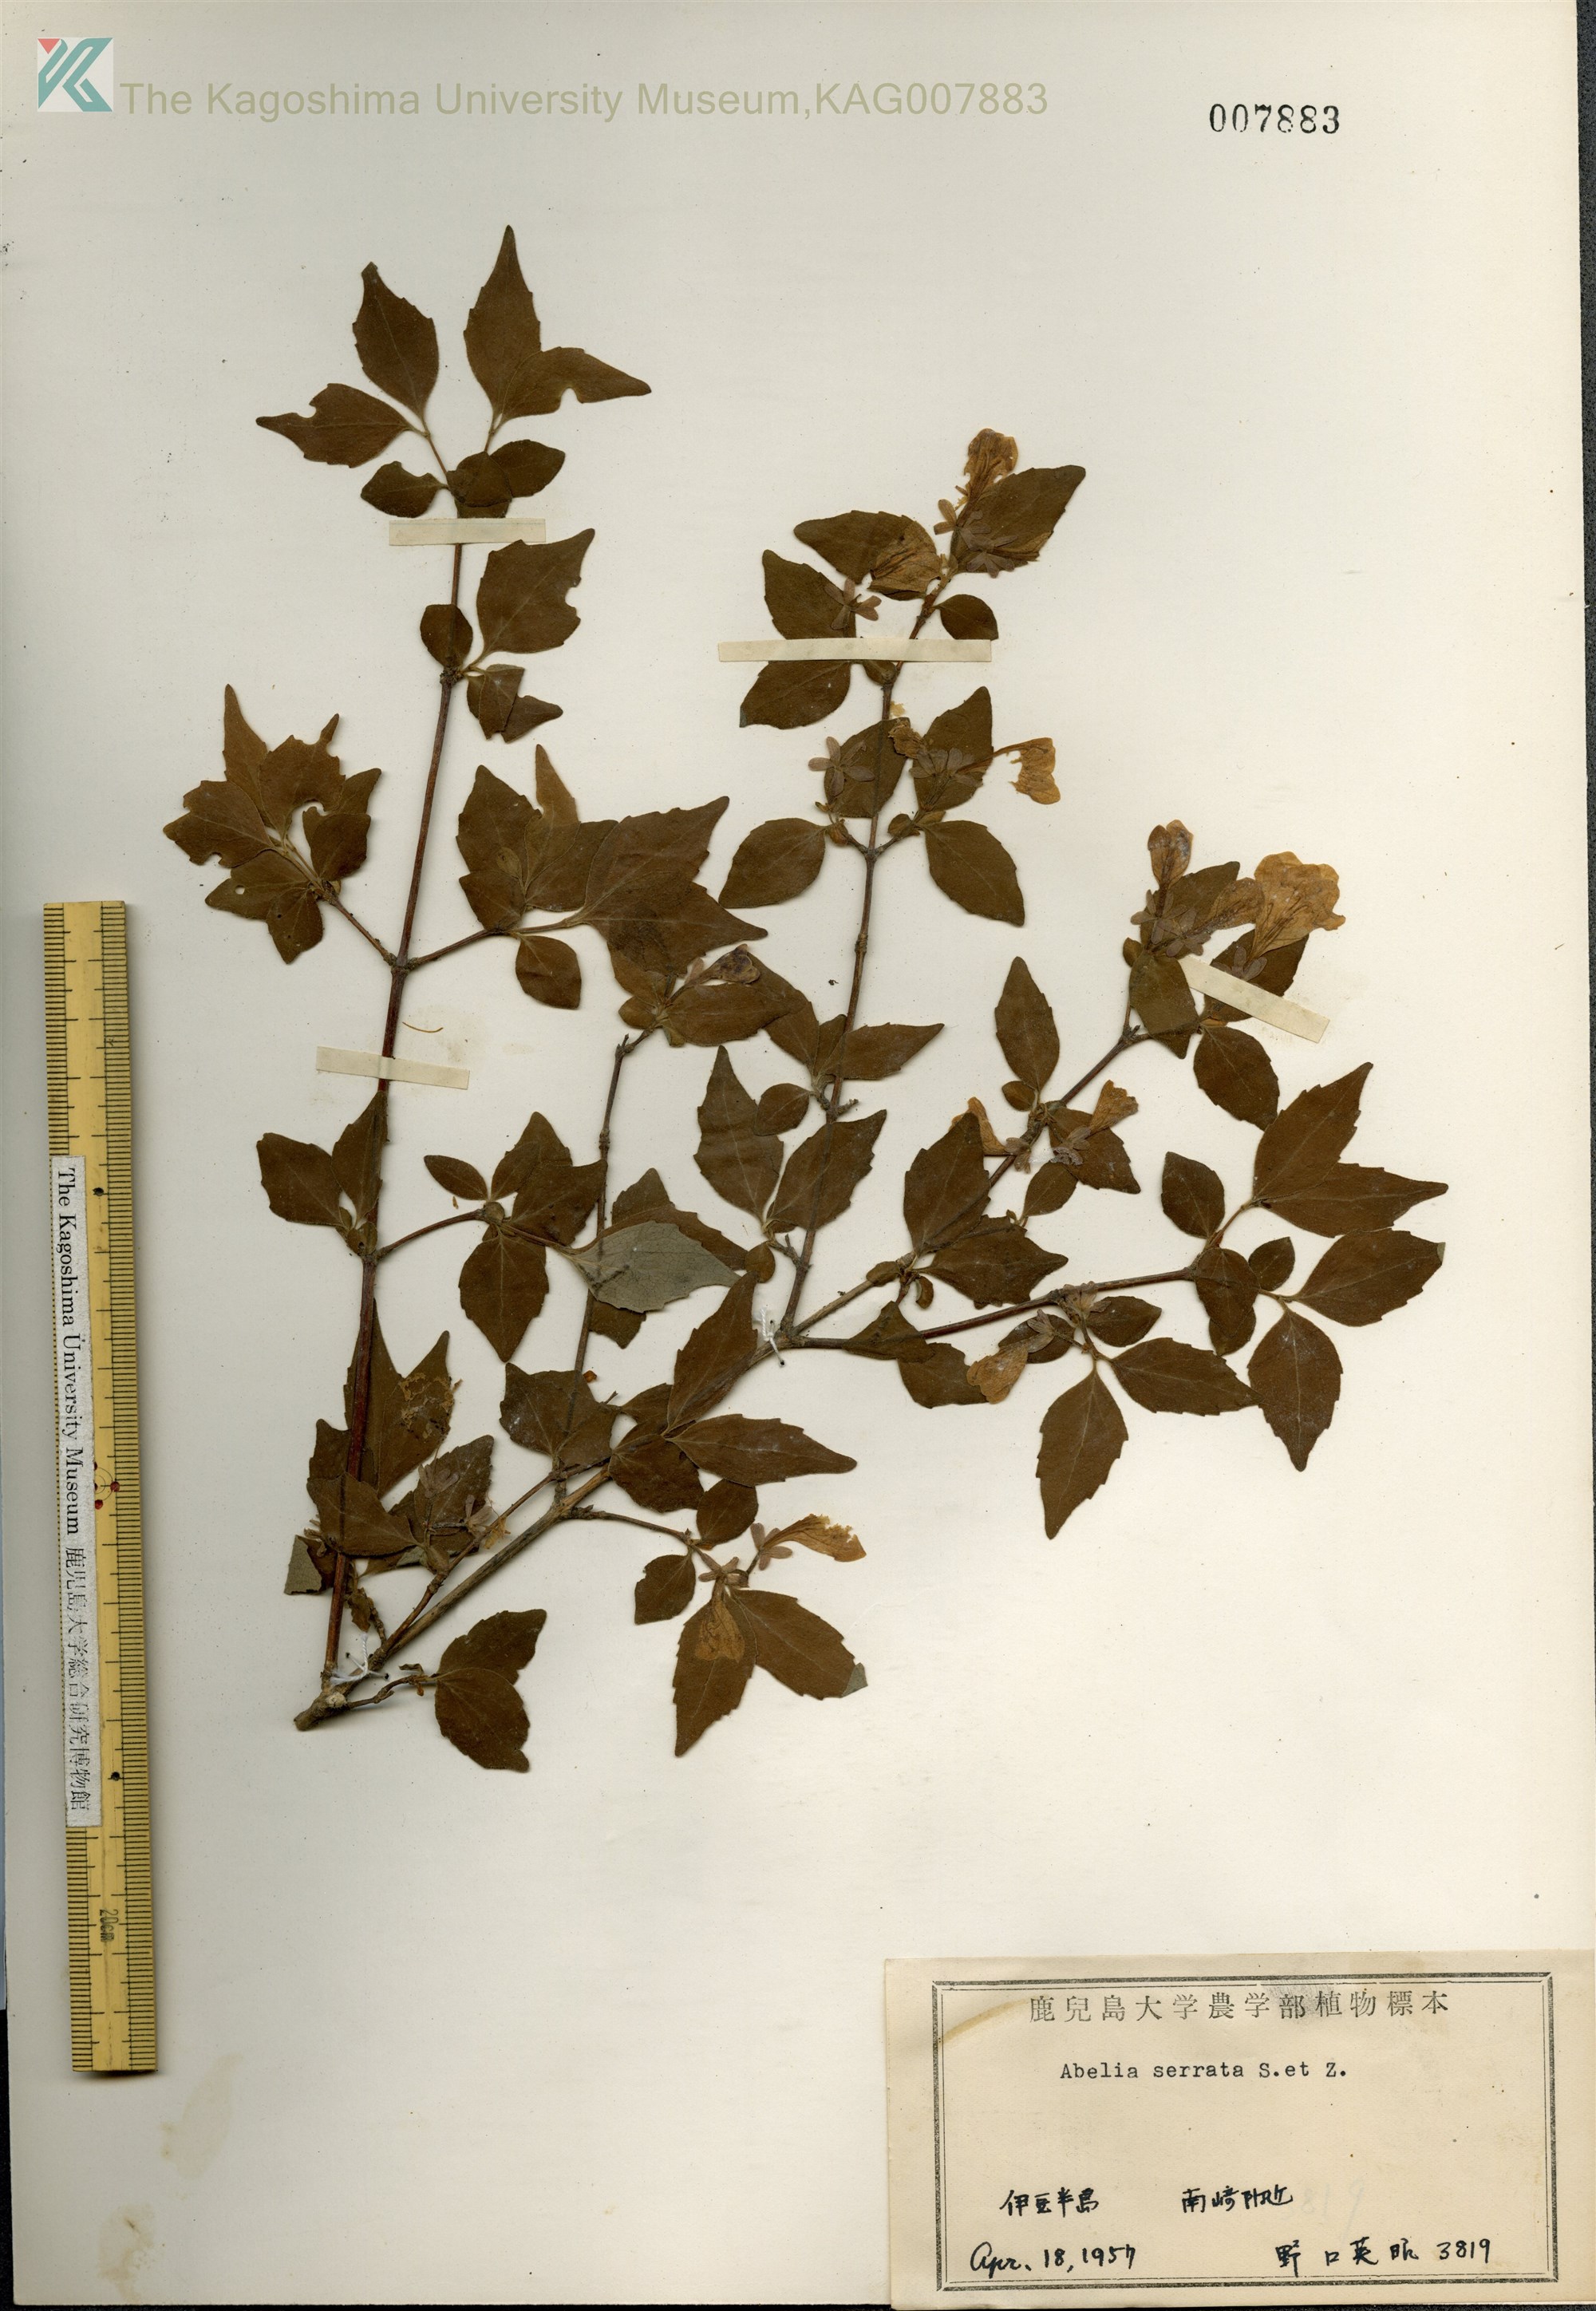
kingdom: Plantae
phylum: Tracheophyta
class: Magnoliopsida
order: Dipsacales
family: Caprifoliaceae
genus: Diabelia
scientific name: Diabelia serrata
